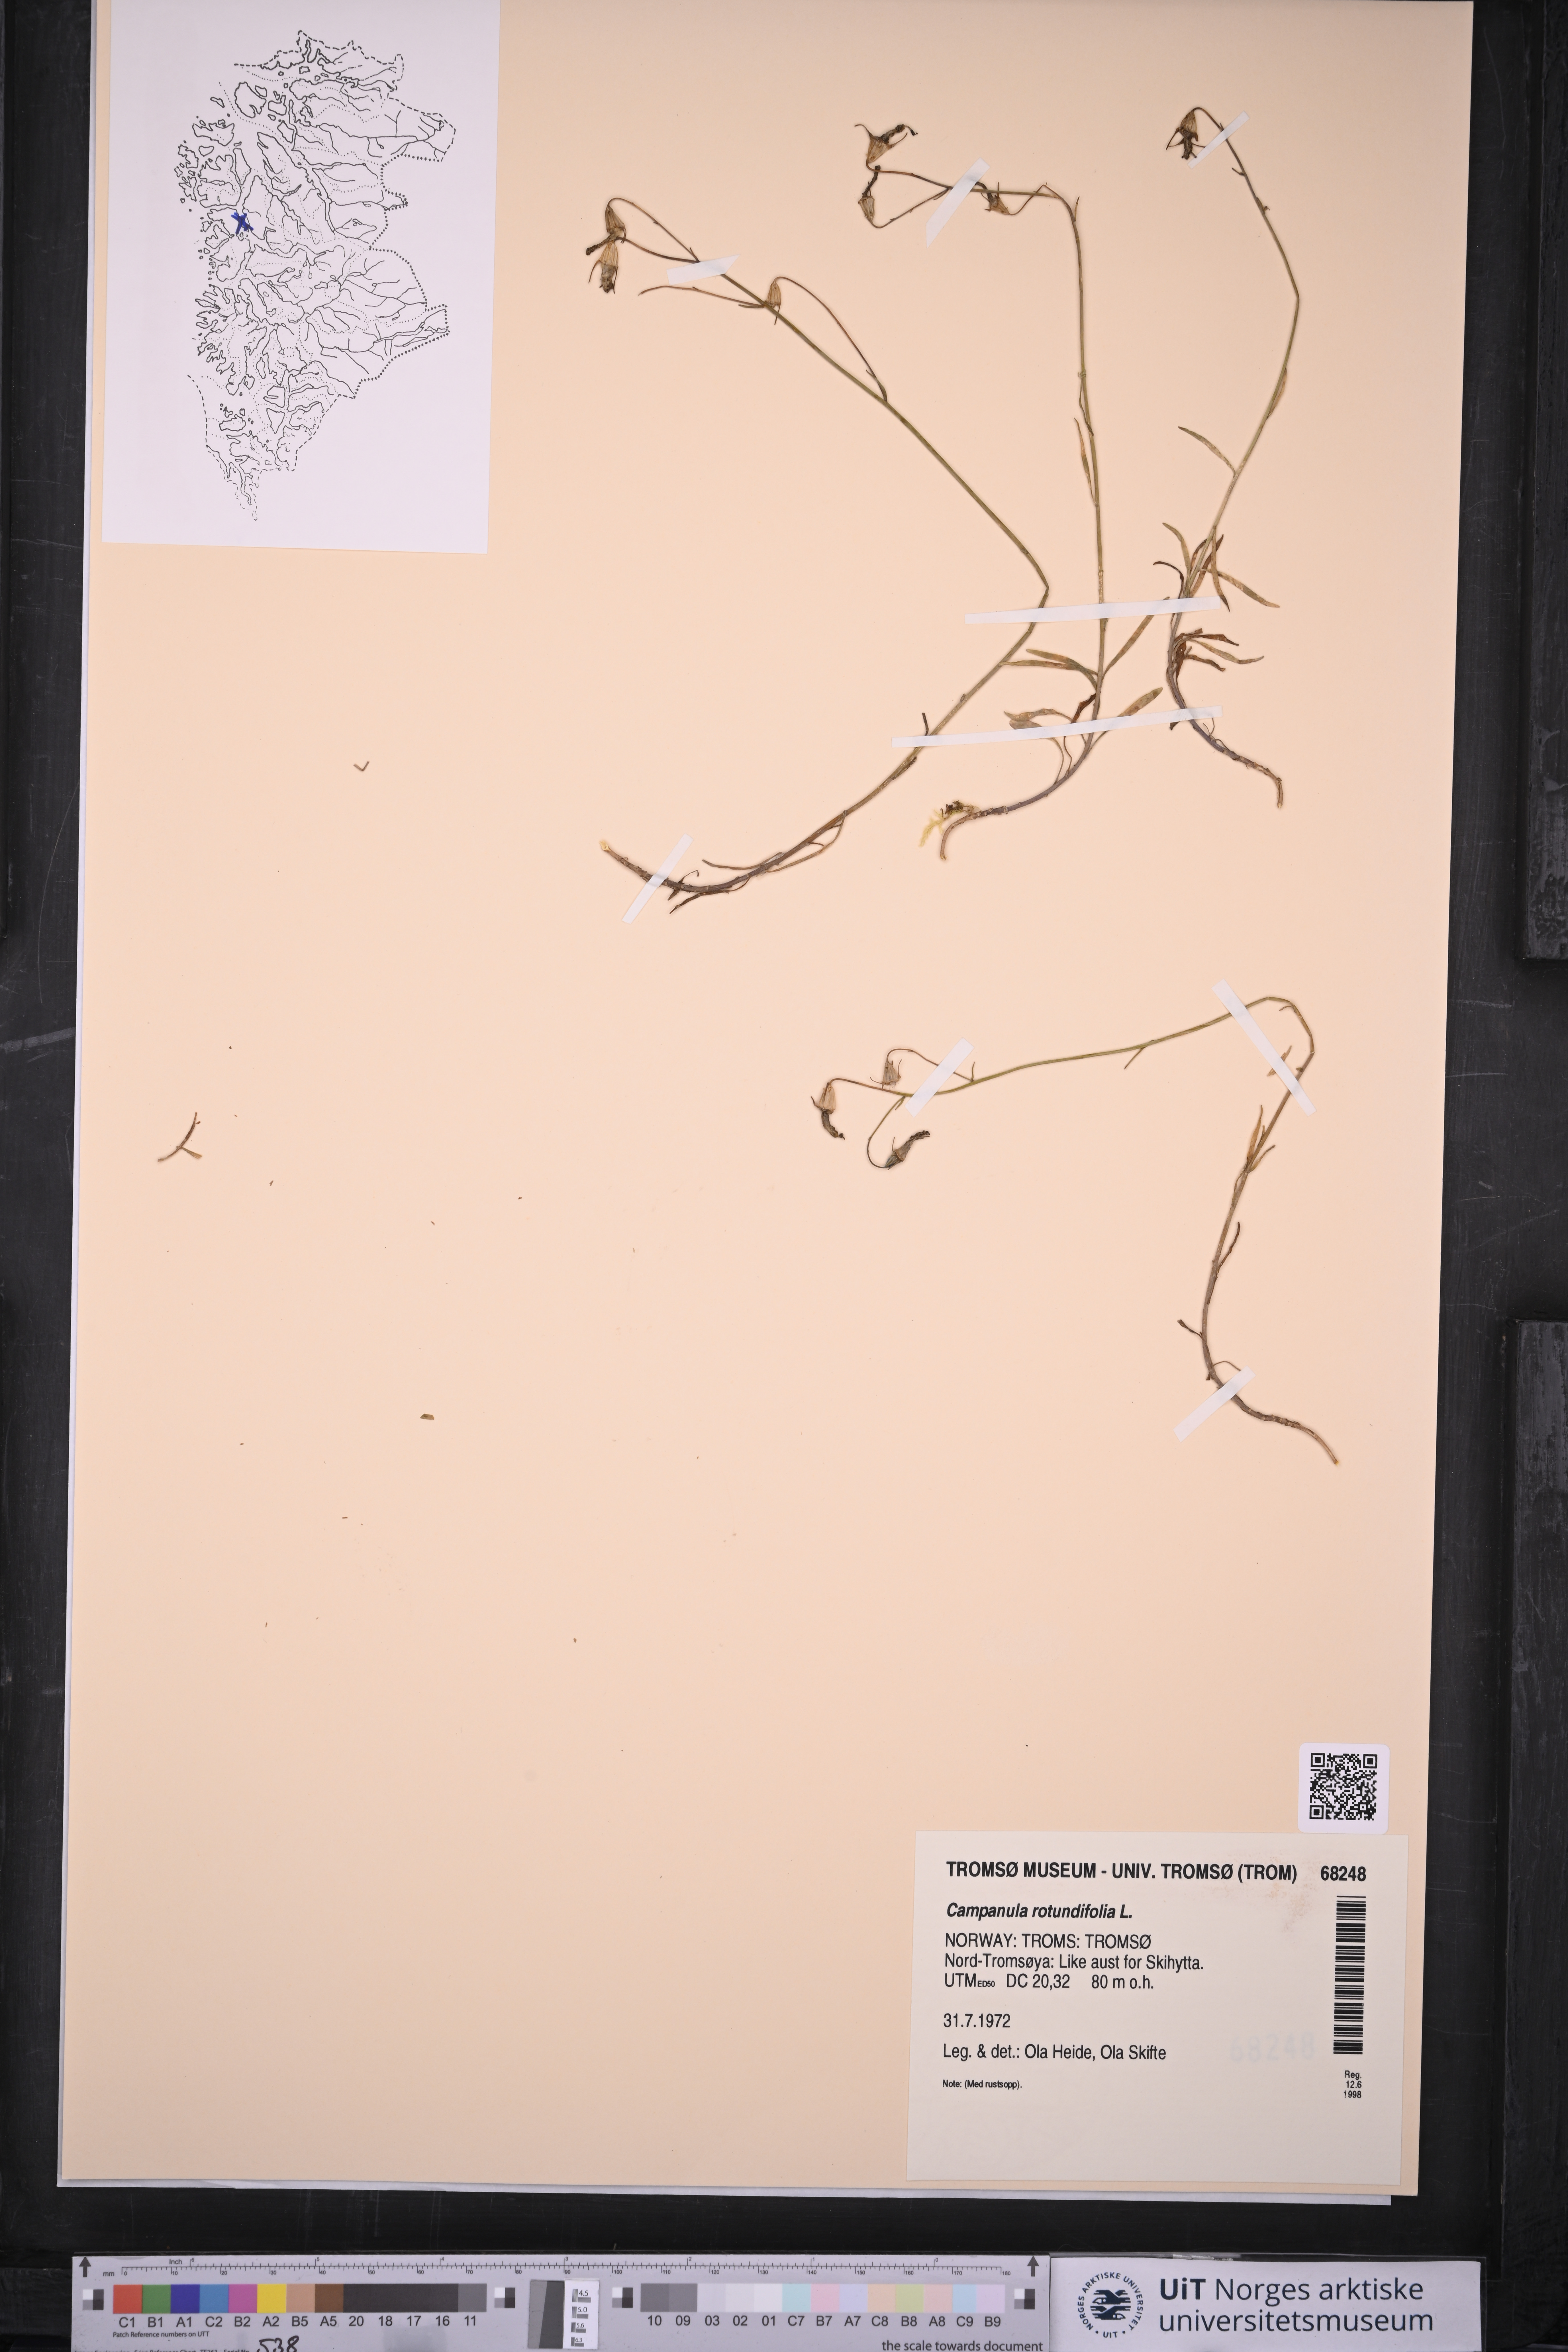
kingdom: Plantae
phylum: Tracheophyta
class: Magnoliopsida
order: Asterales
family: Campanulaceae
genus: Campanula
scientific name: Campanula rotundifolia
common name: Harebell
